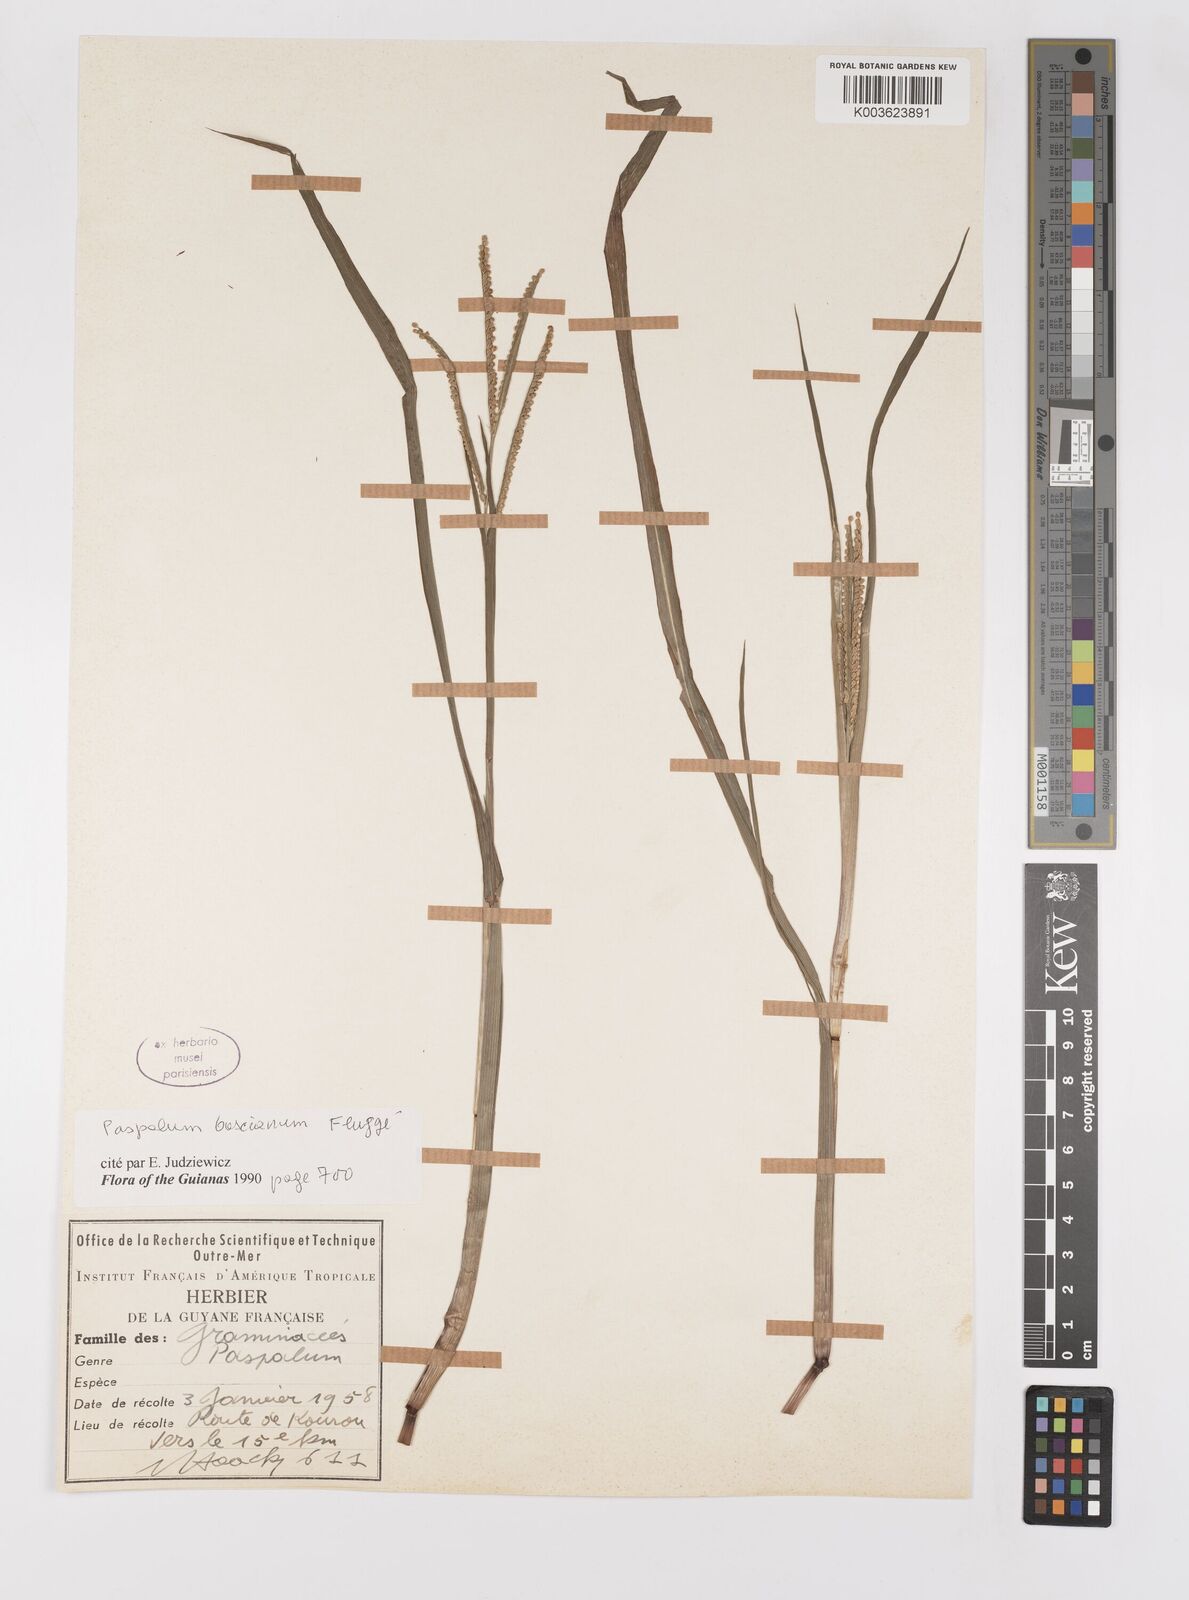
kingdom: Plantae
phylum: Tracheophyta
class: Liliopsida
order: Poales
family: Poaceae
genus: Paspalum
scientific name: Paspalum scrobiculatum
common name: Kodo millet
